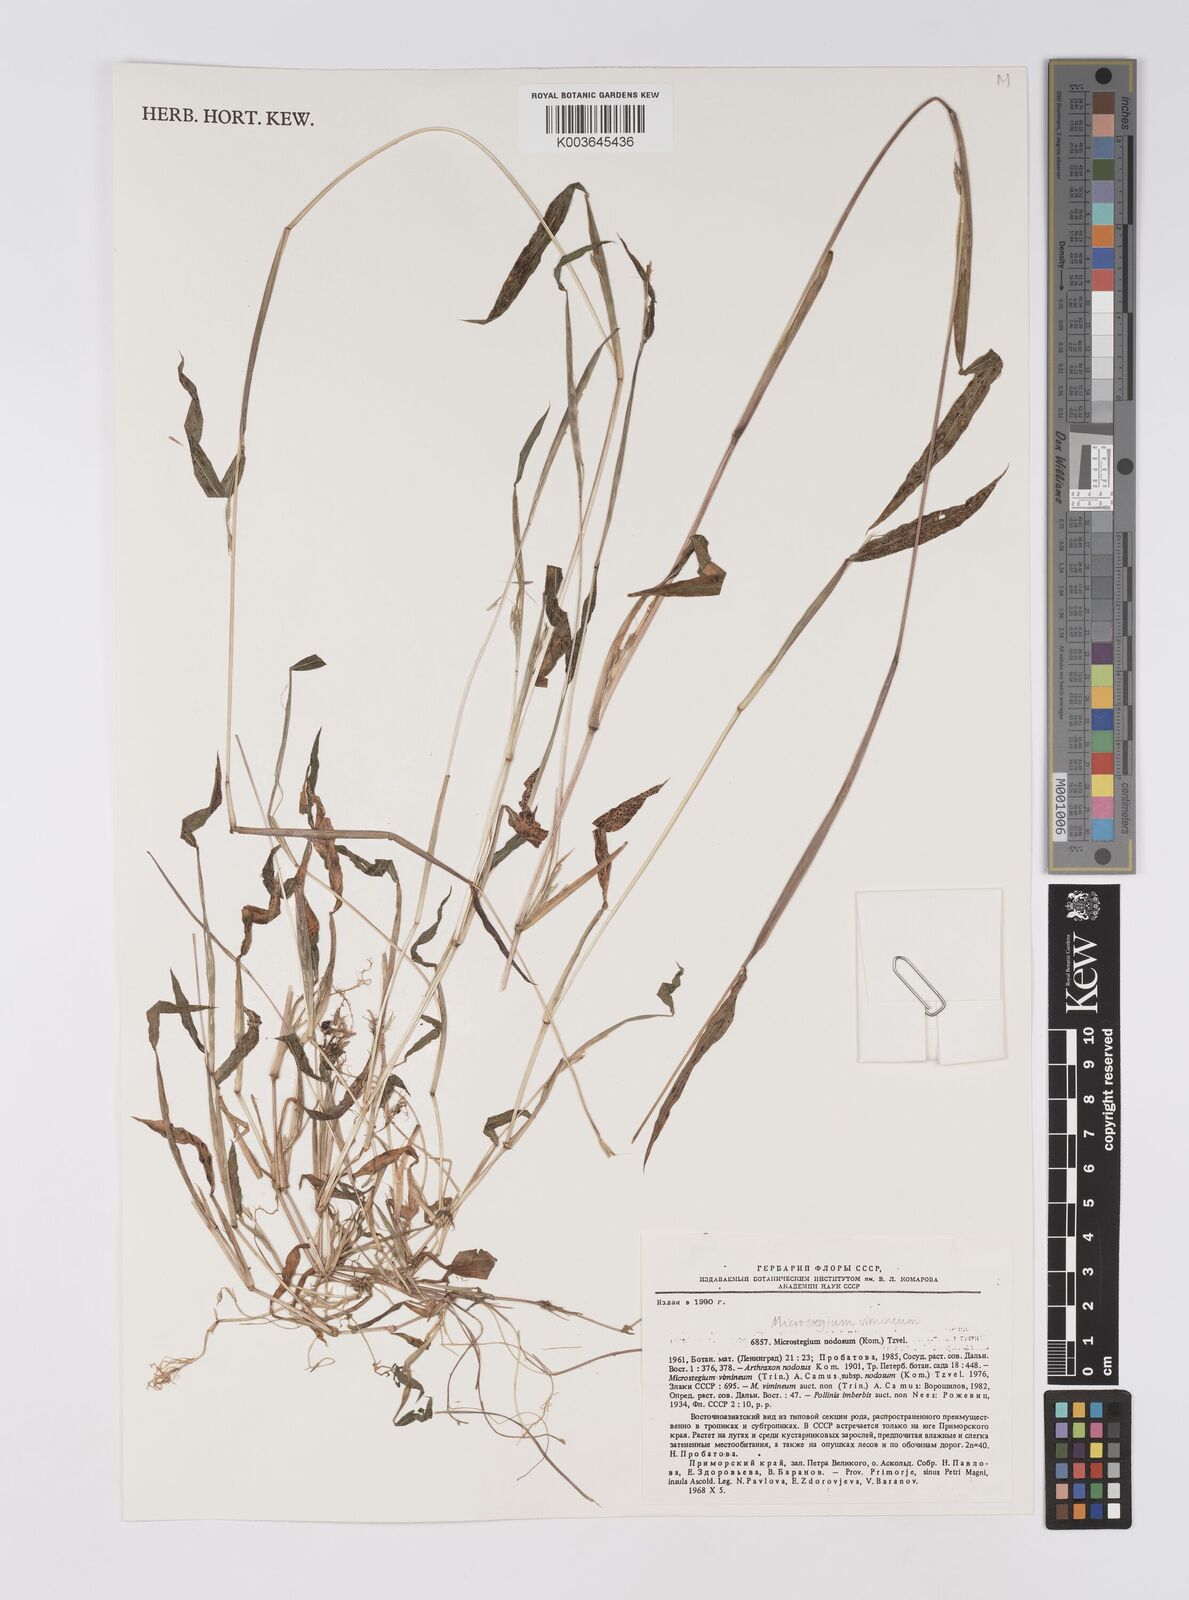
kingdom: Plantae
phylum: Tracheophyta
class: Liliopsida
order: Poales
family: Poaceae
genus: Microstegium
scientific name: Microstegium vimineum
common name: Japanese stiltgrass
